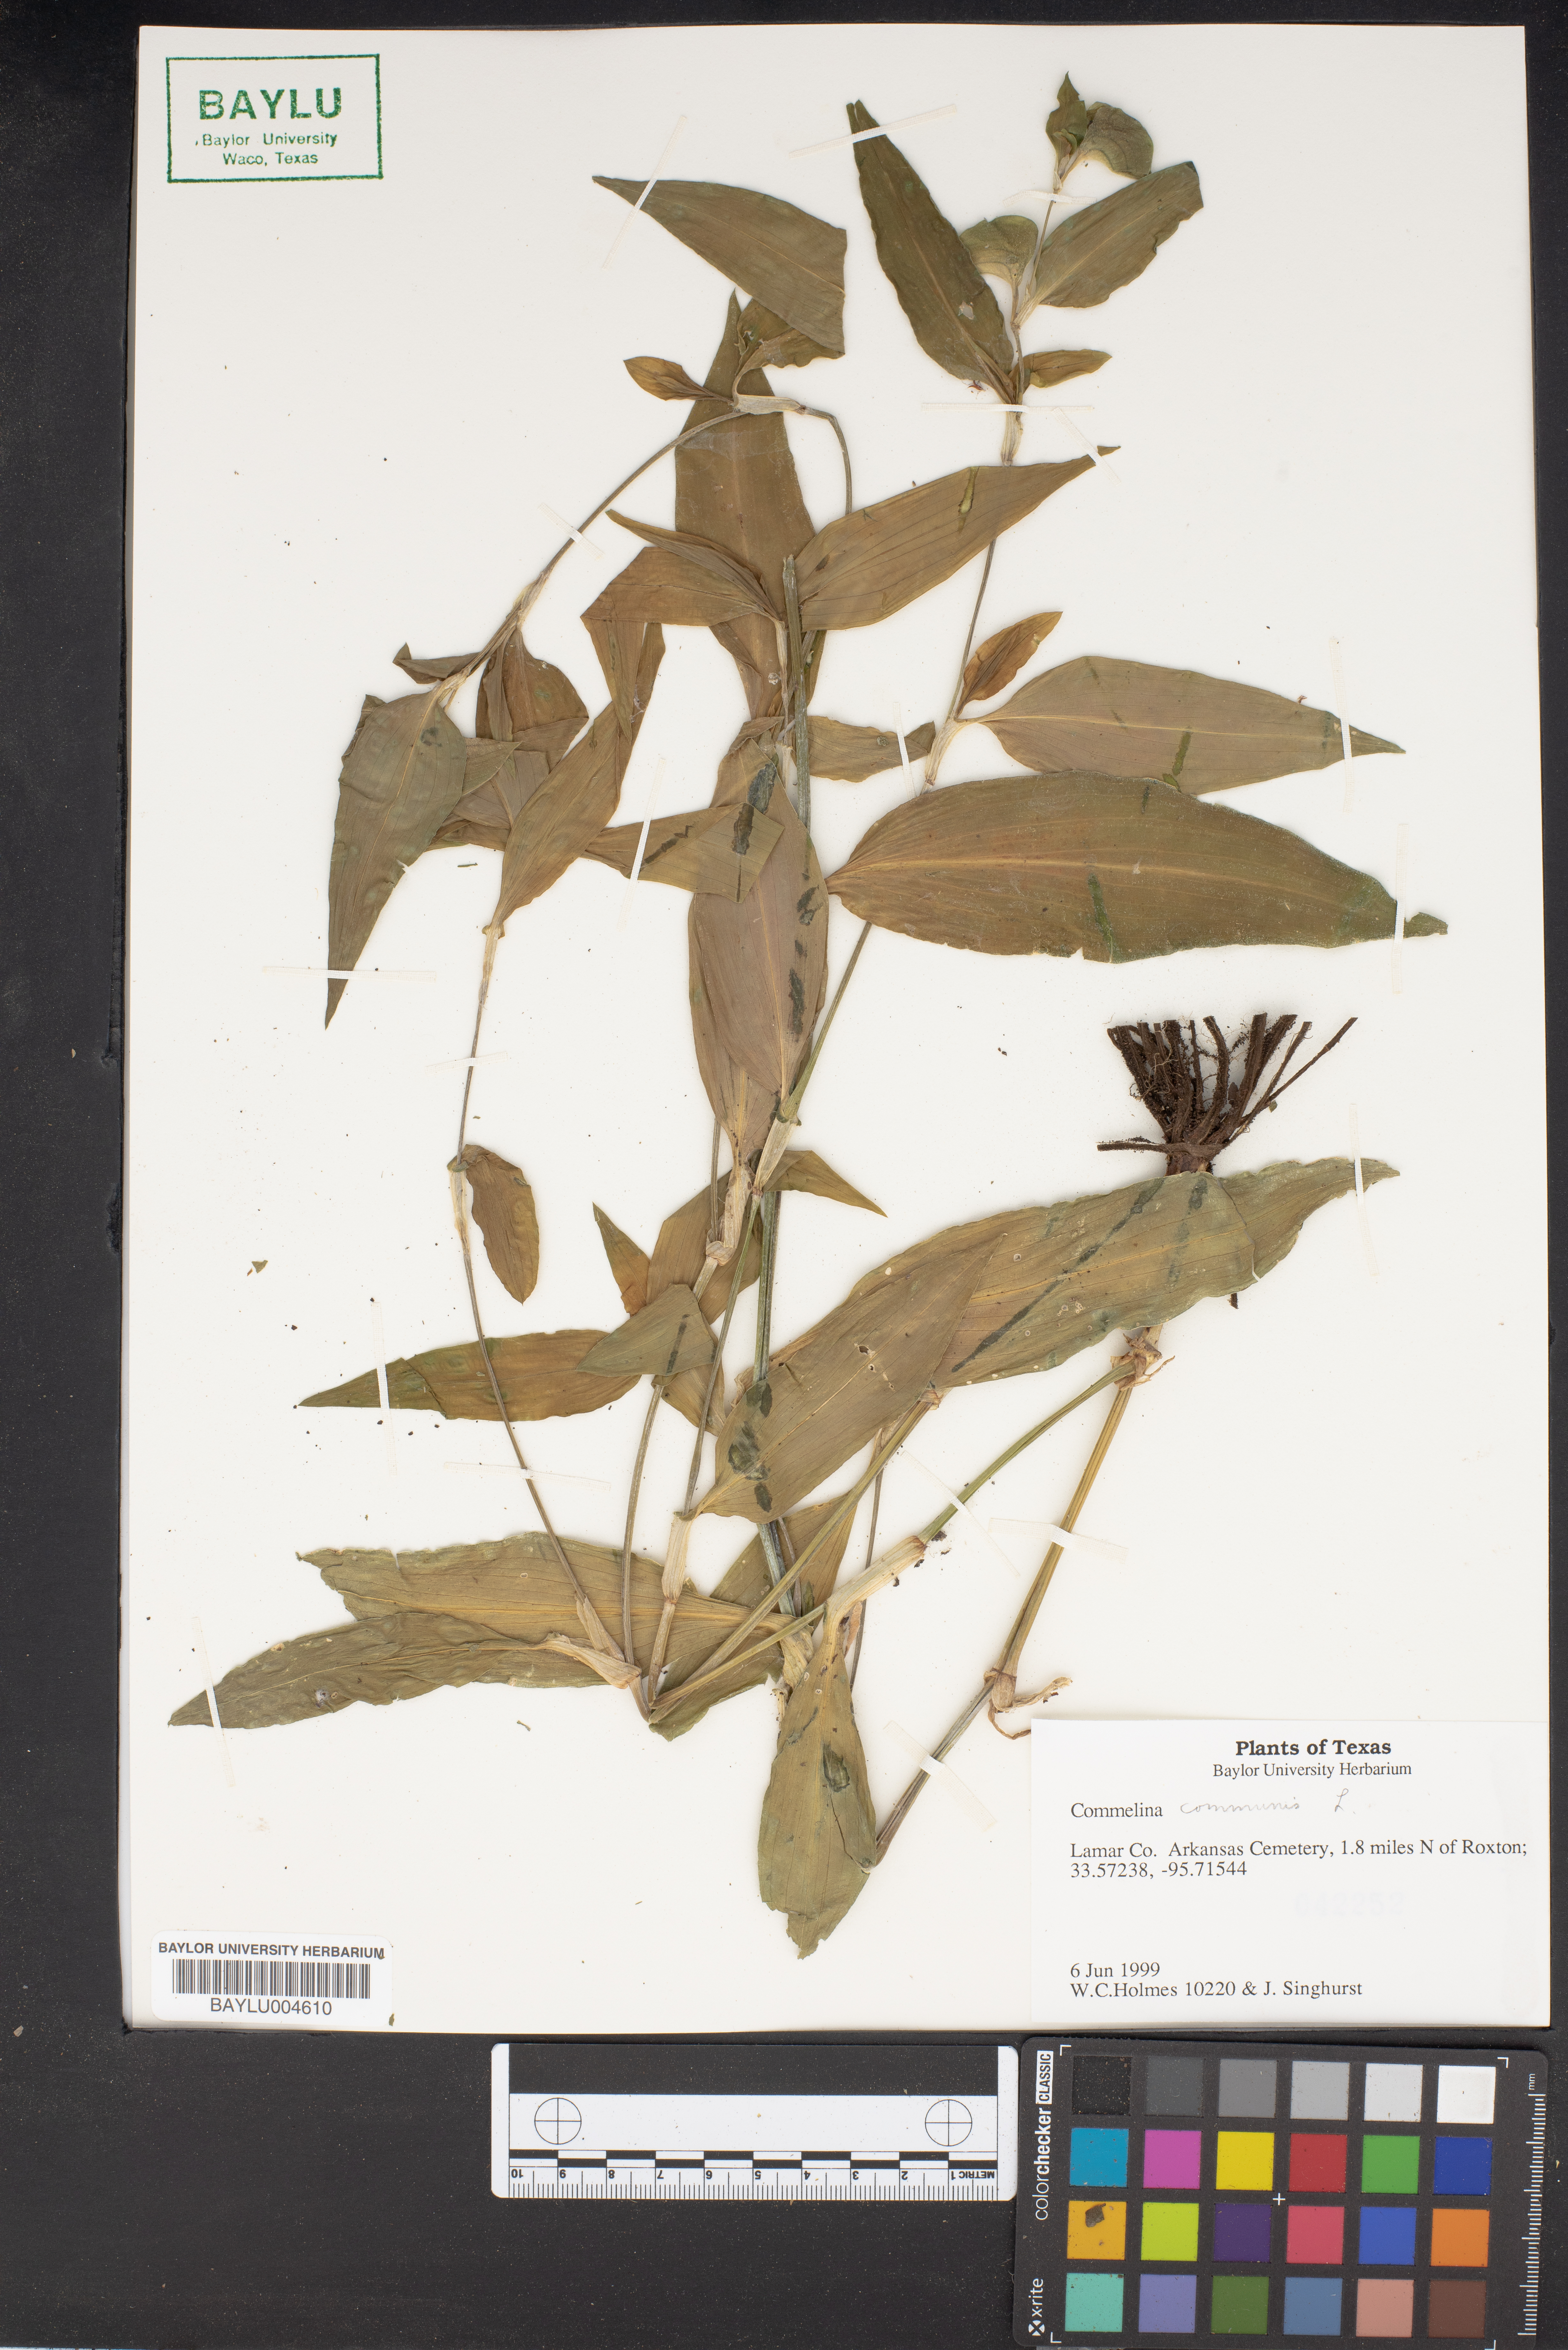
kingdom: Plantae
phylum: Tracheophyta
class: Liliopsida
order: Commelinales
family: Commelinaceae
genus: Commelina
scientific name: Commelina communis
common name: Asiatic dayflower
